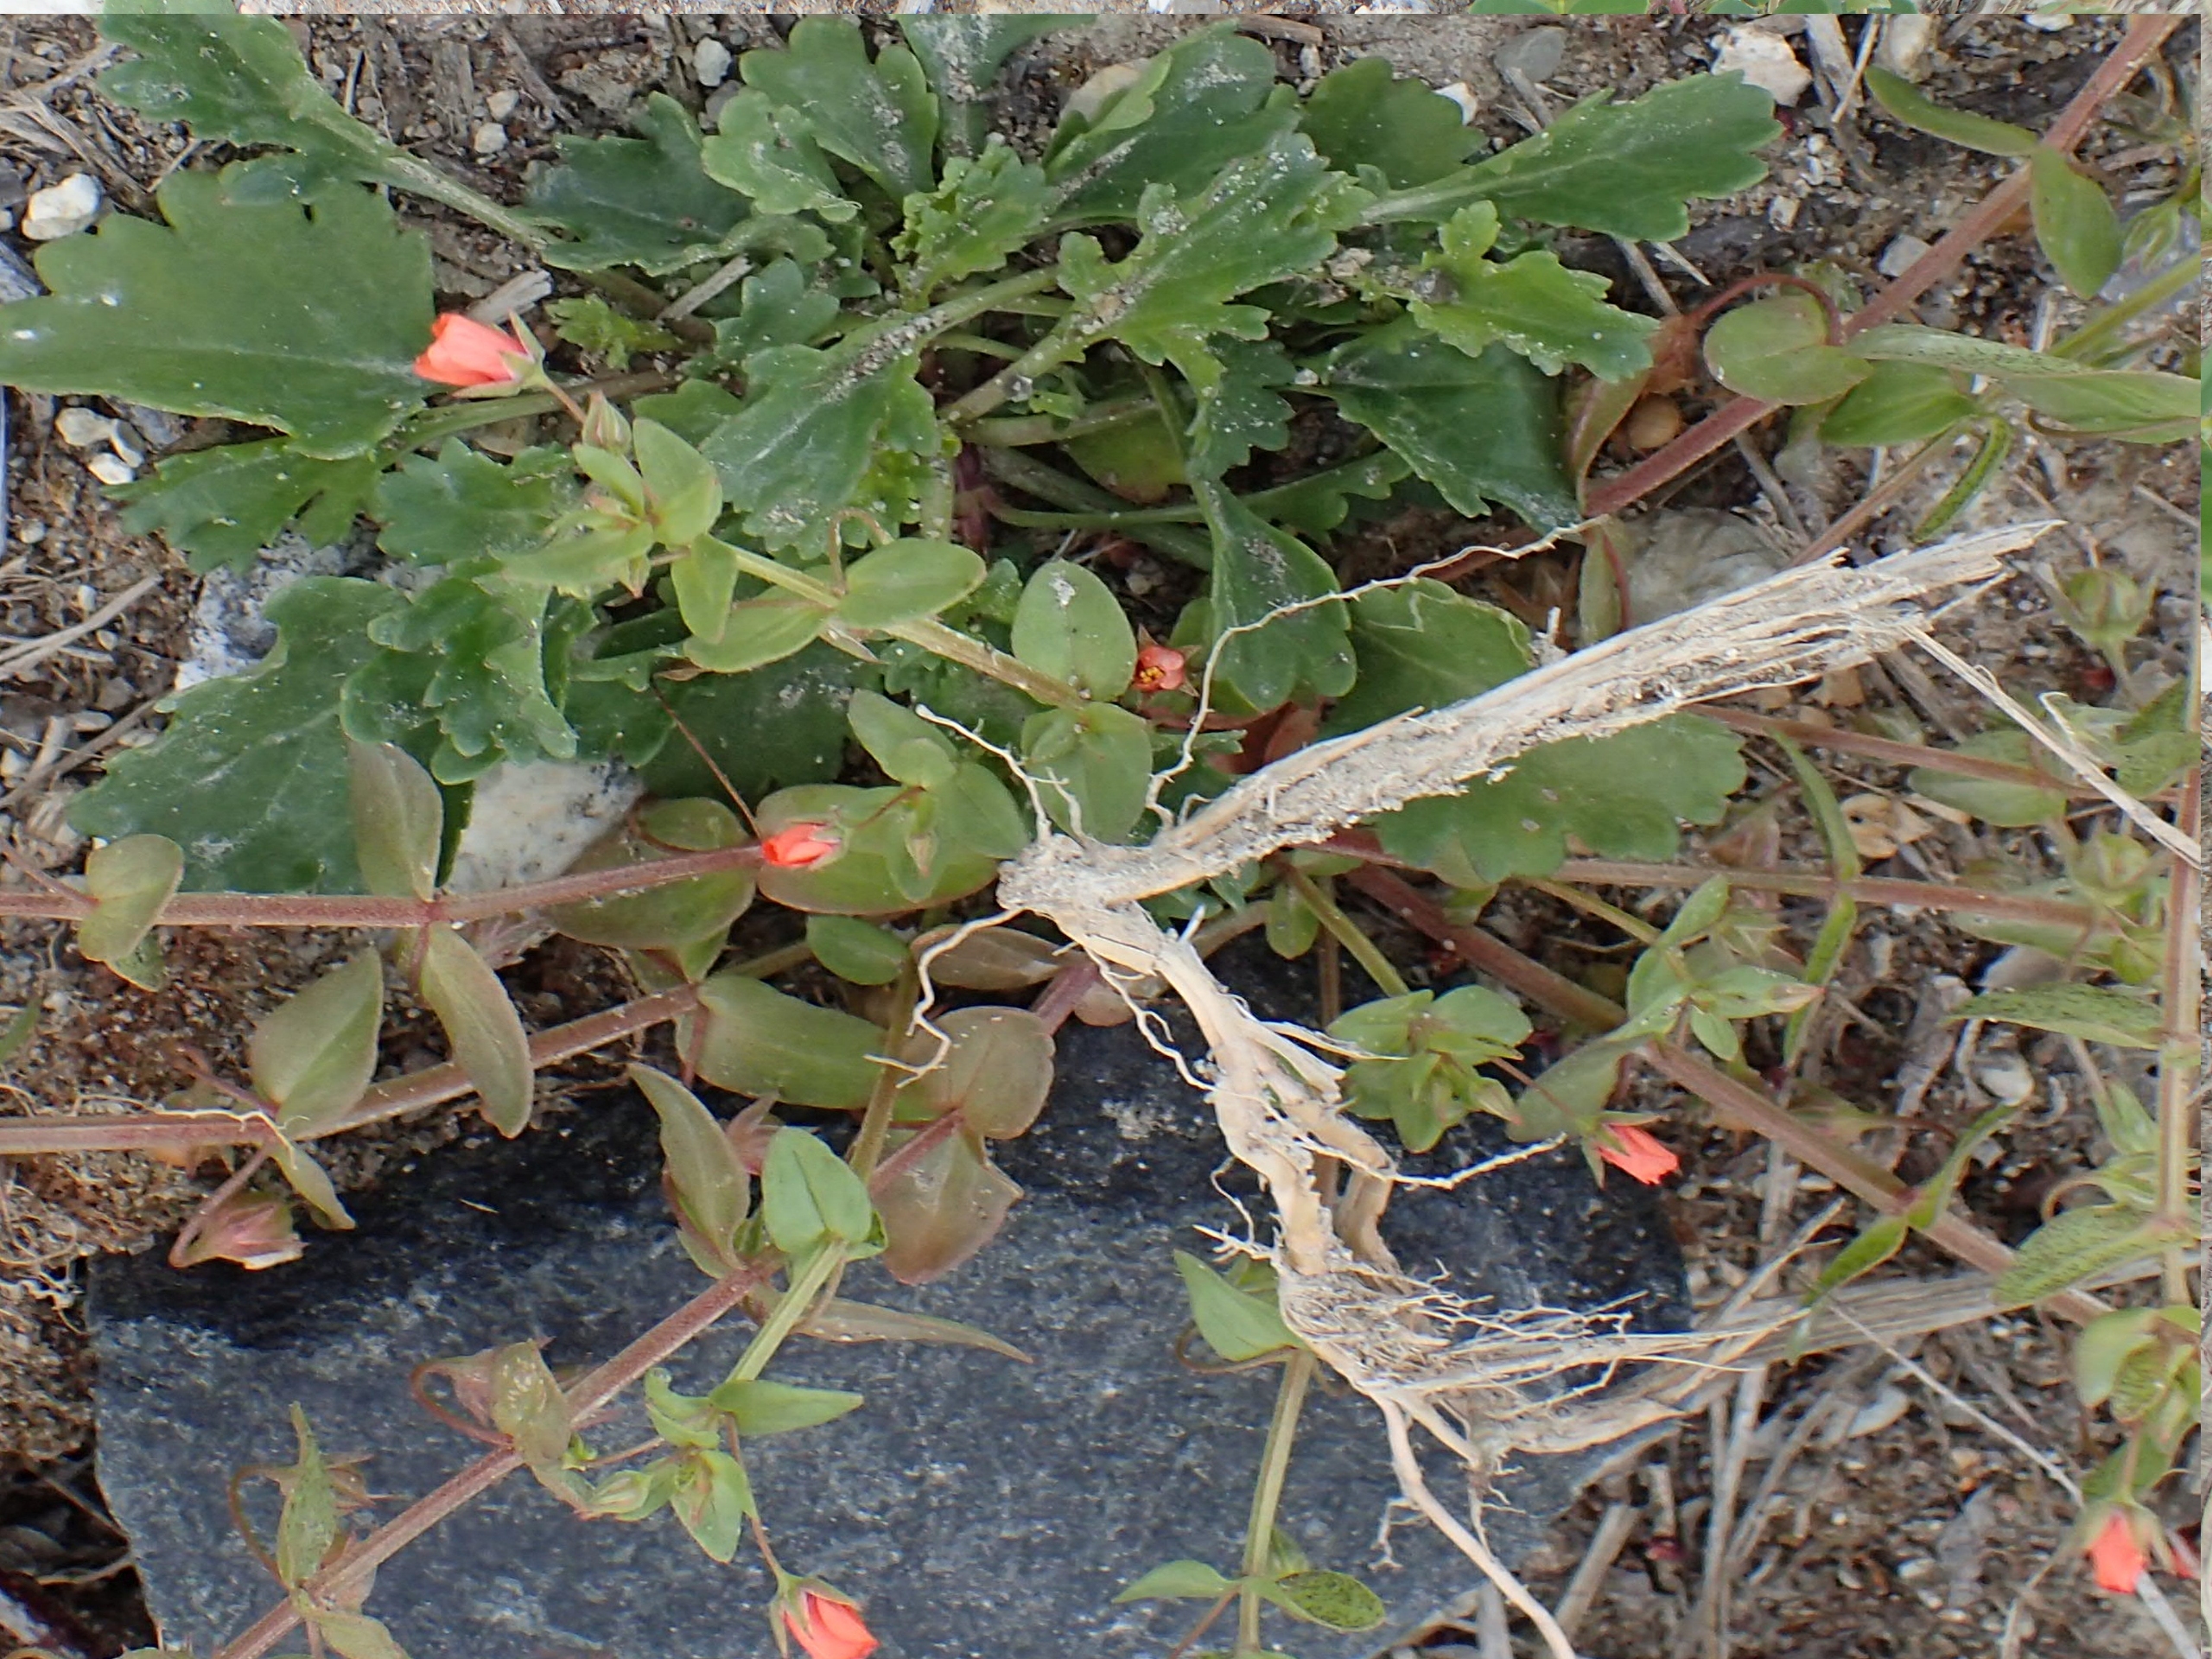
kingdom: Plantae
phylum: Tracheophyta
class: Magnoliopsida
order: Ericales
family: Primulaceae
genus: Lysimachia
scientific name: Lysimachia arvensis
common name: Rød arve
